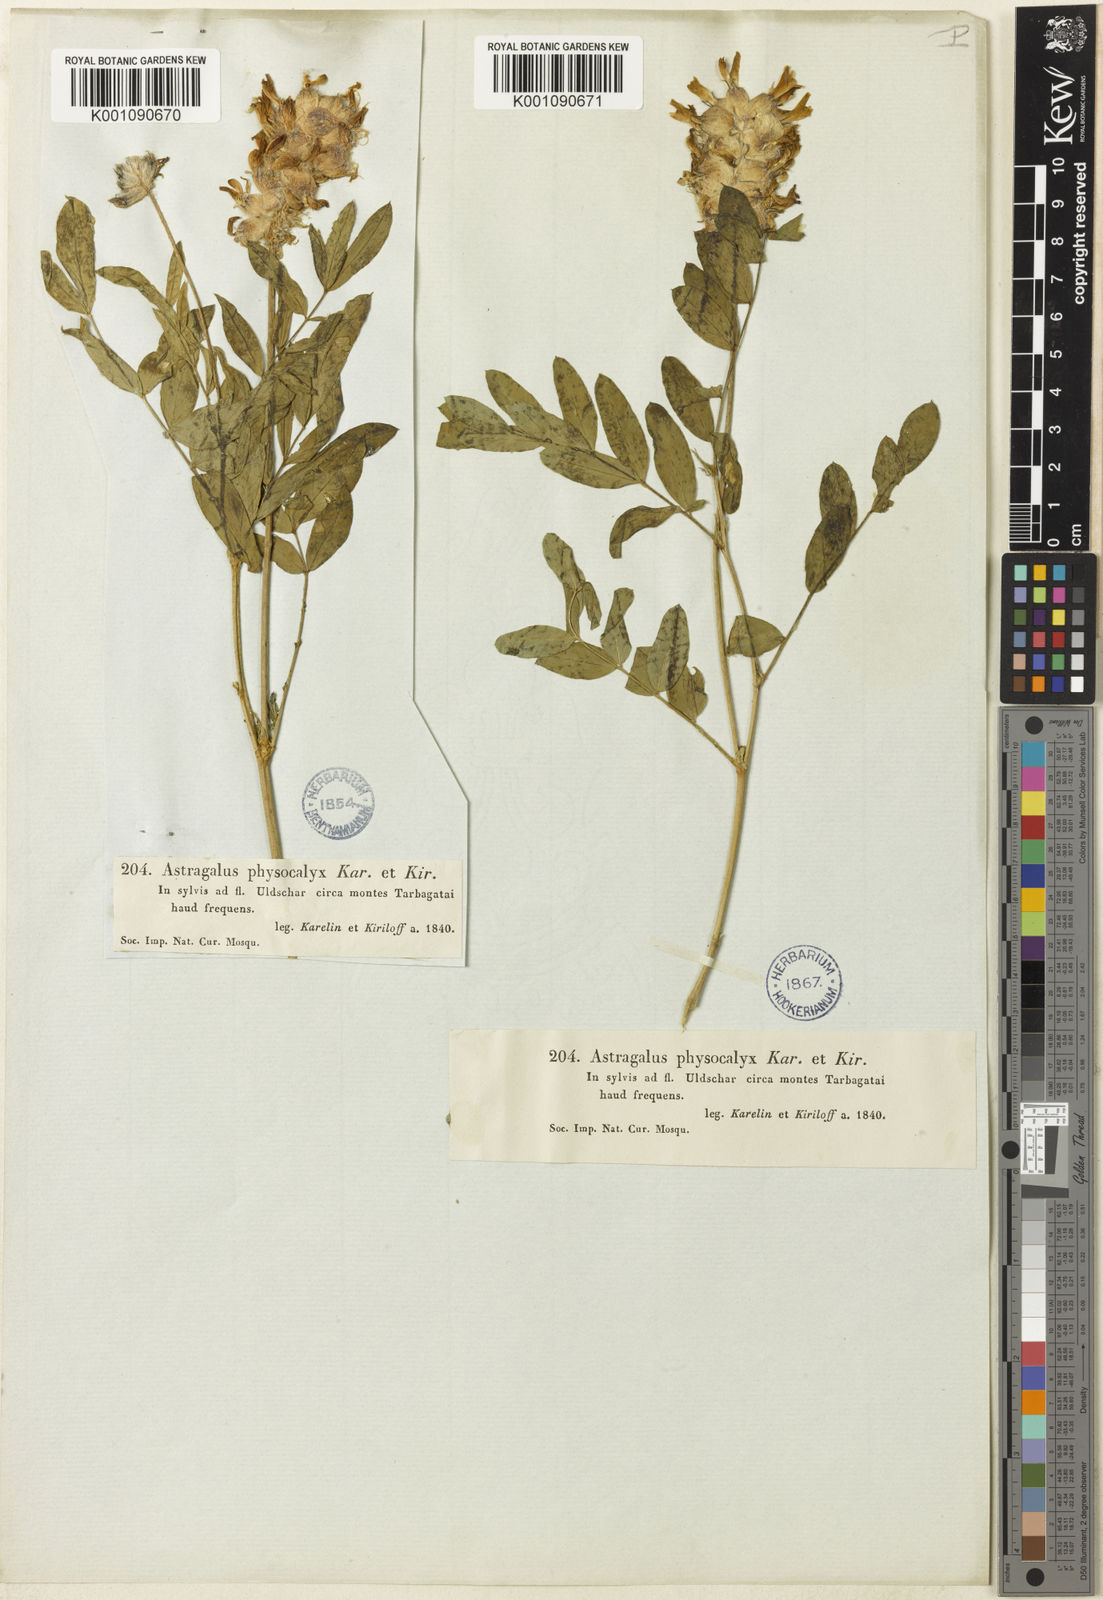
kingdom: Plantae
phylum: Tracheophyta
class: Magnoliopsida
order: Fabales
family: Fabaceae
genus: Astragalus
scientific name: Astragalus
